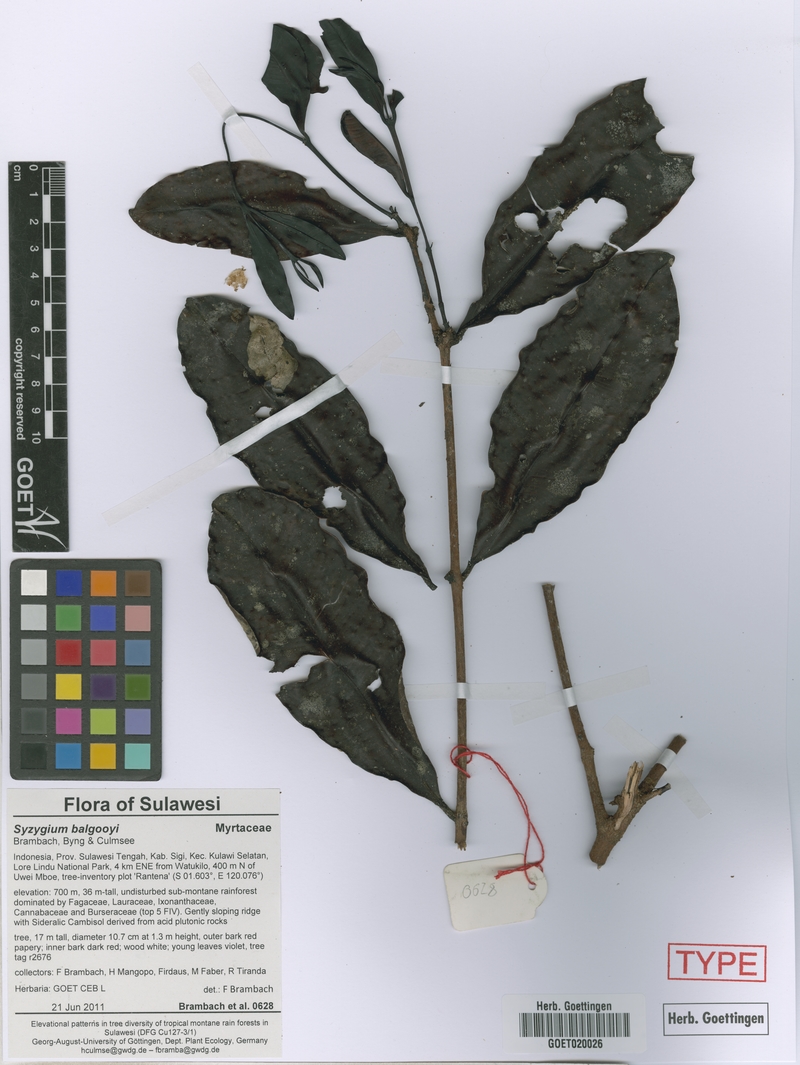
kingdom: Plantae
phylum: Tracheophyta
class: Magnoliopsida
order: Myrtales
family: Myrtaceae
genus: Syzygium
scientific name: Syzygium balgooyi
